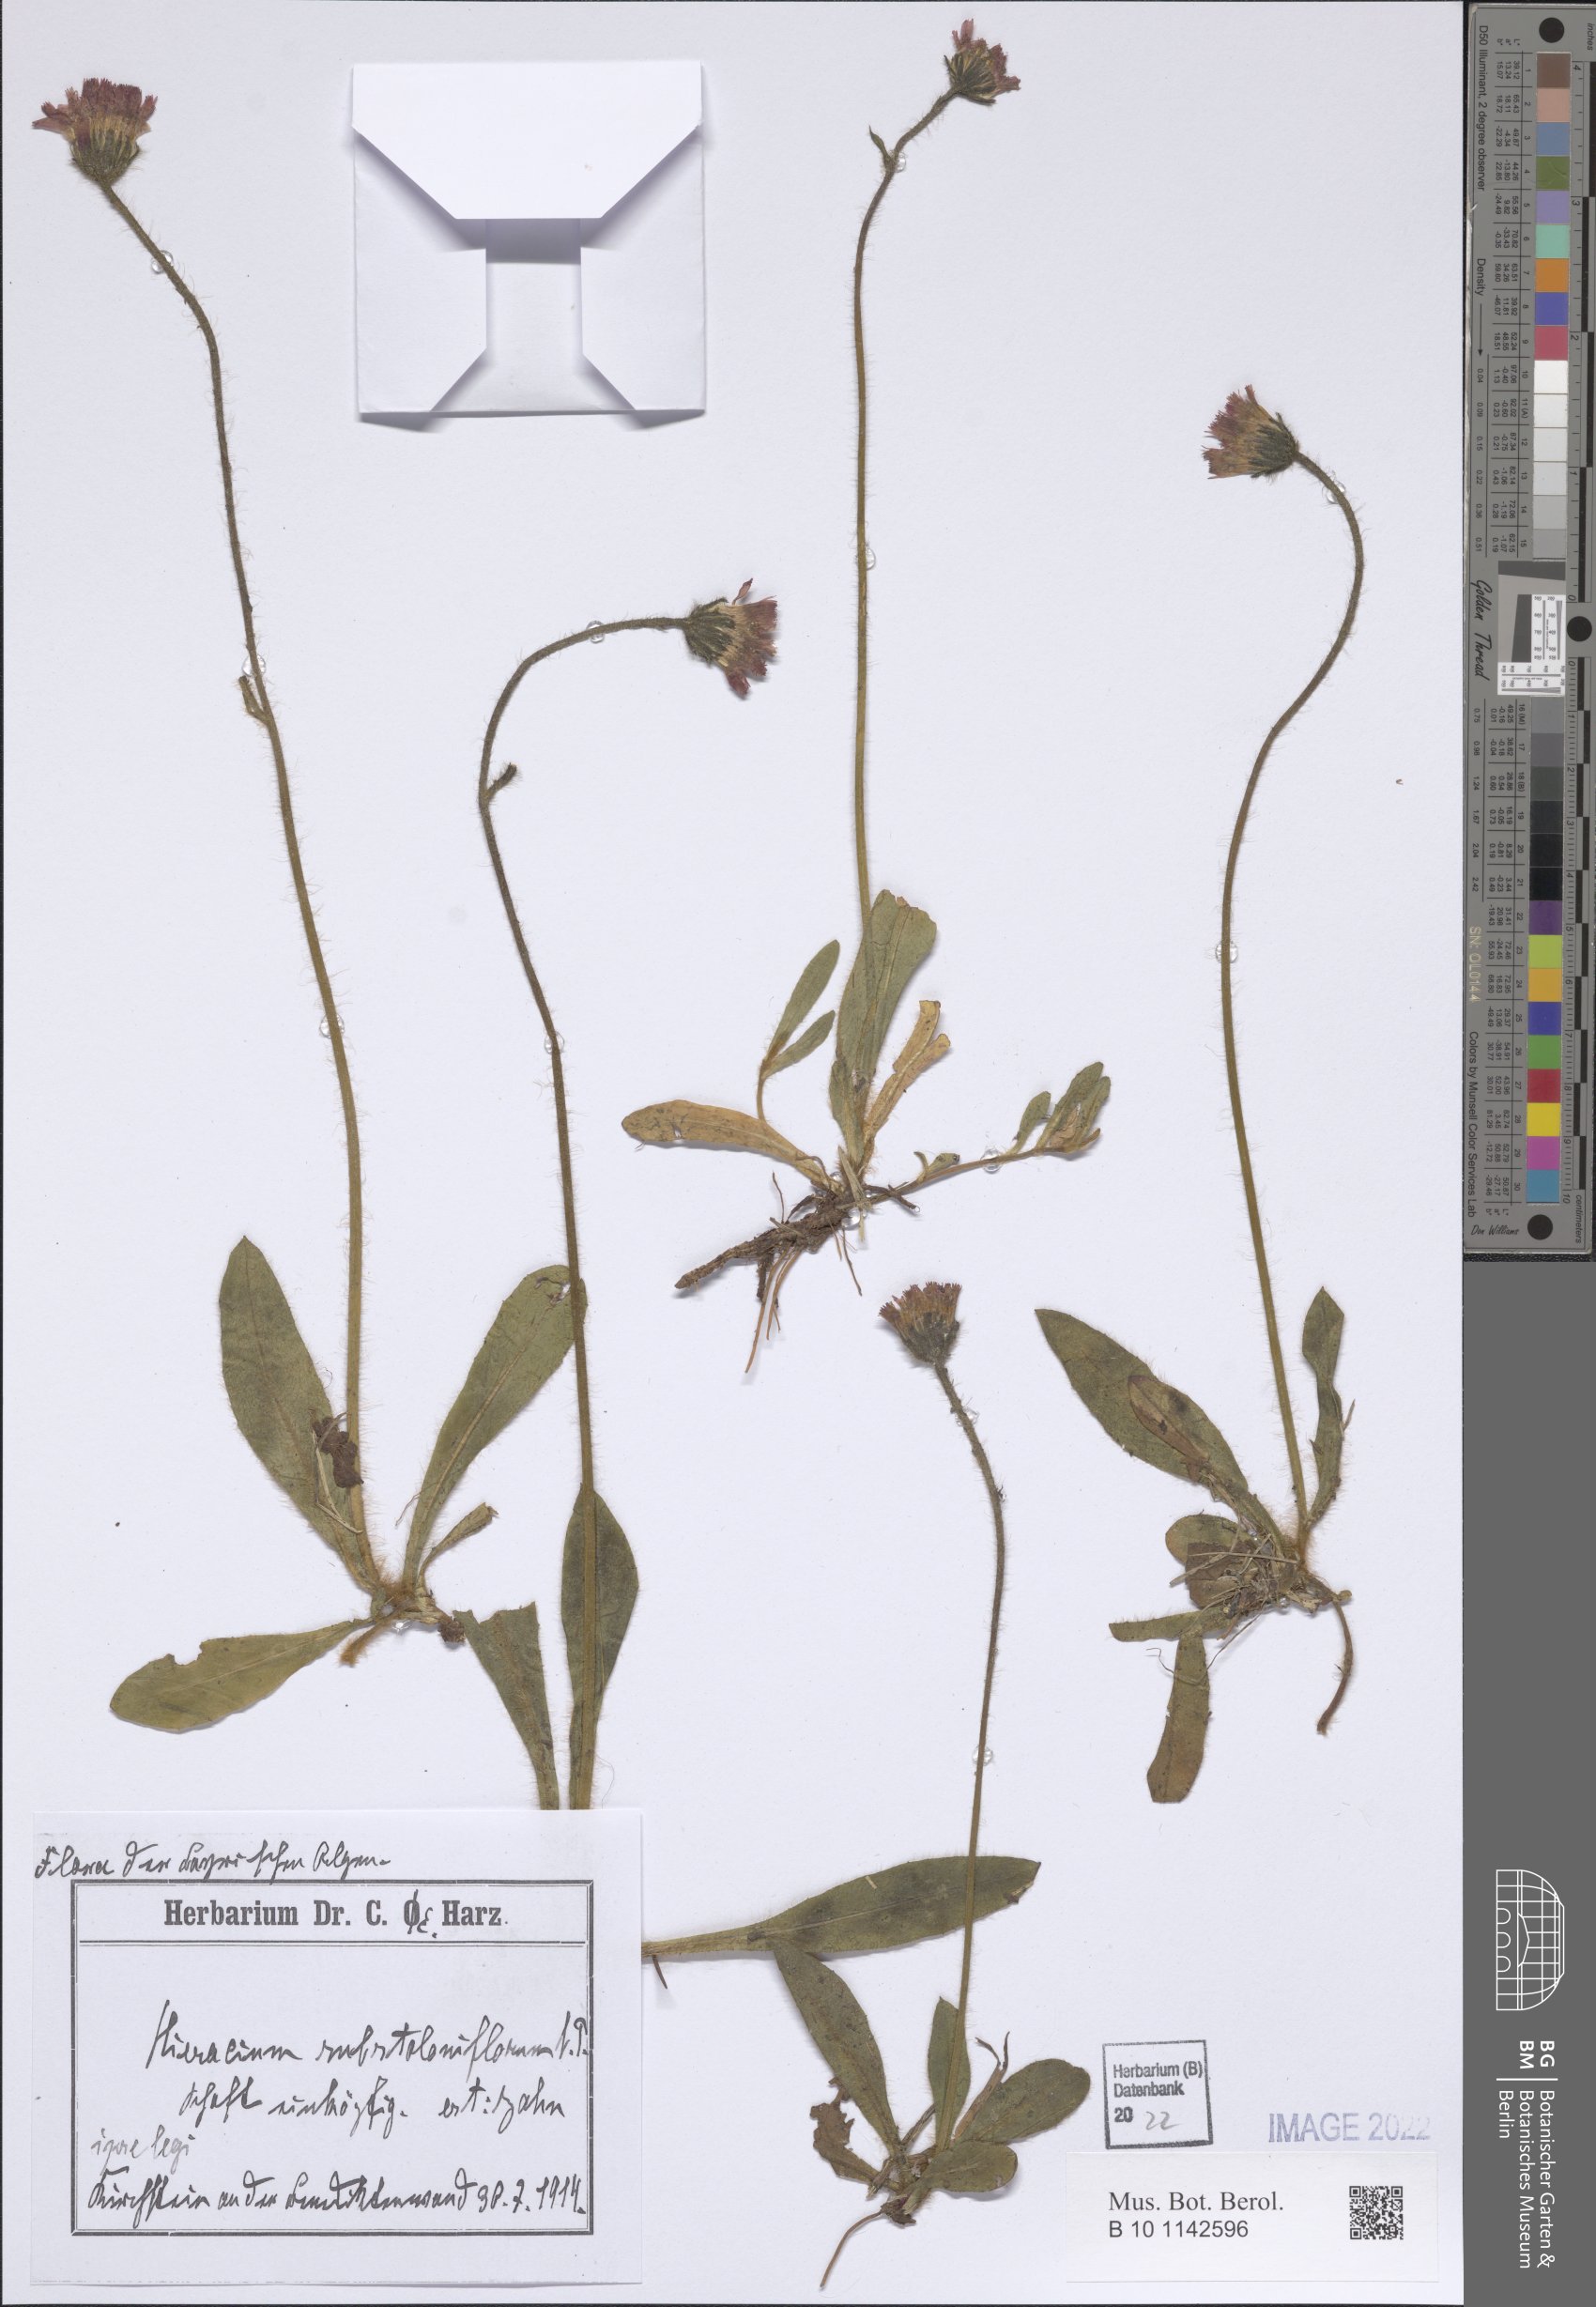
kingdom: Plantae
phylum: Tracheophyta
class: Magnoliopsida
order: Asterales
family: Asteraceae
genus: Pilosella
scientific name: Pilosella rubra
